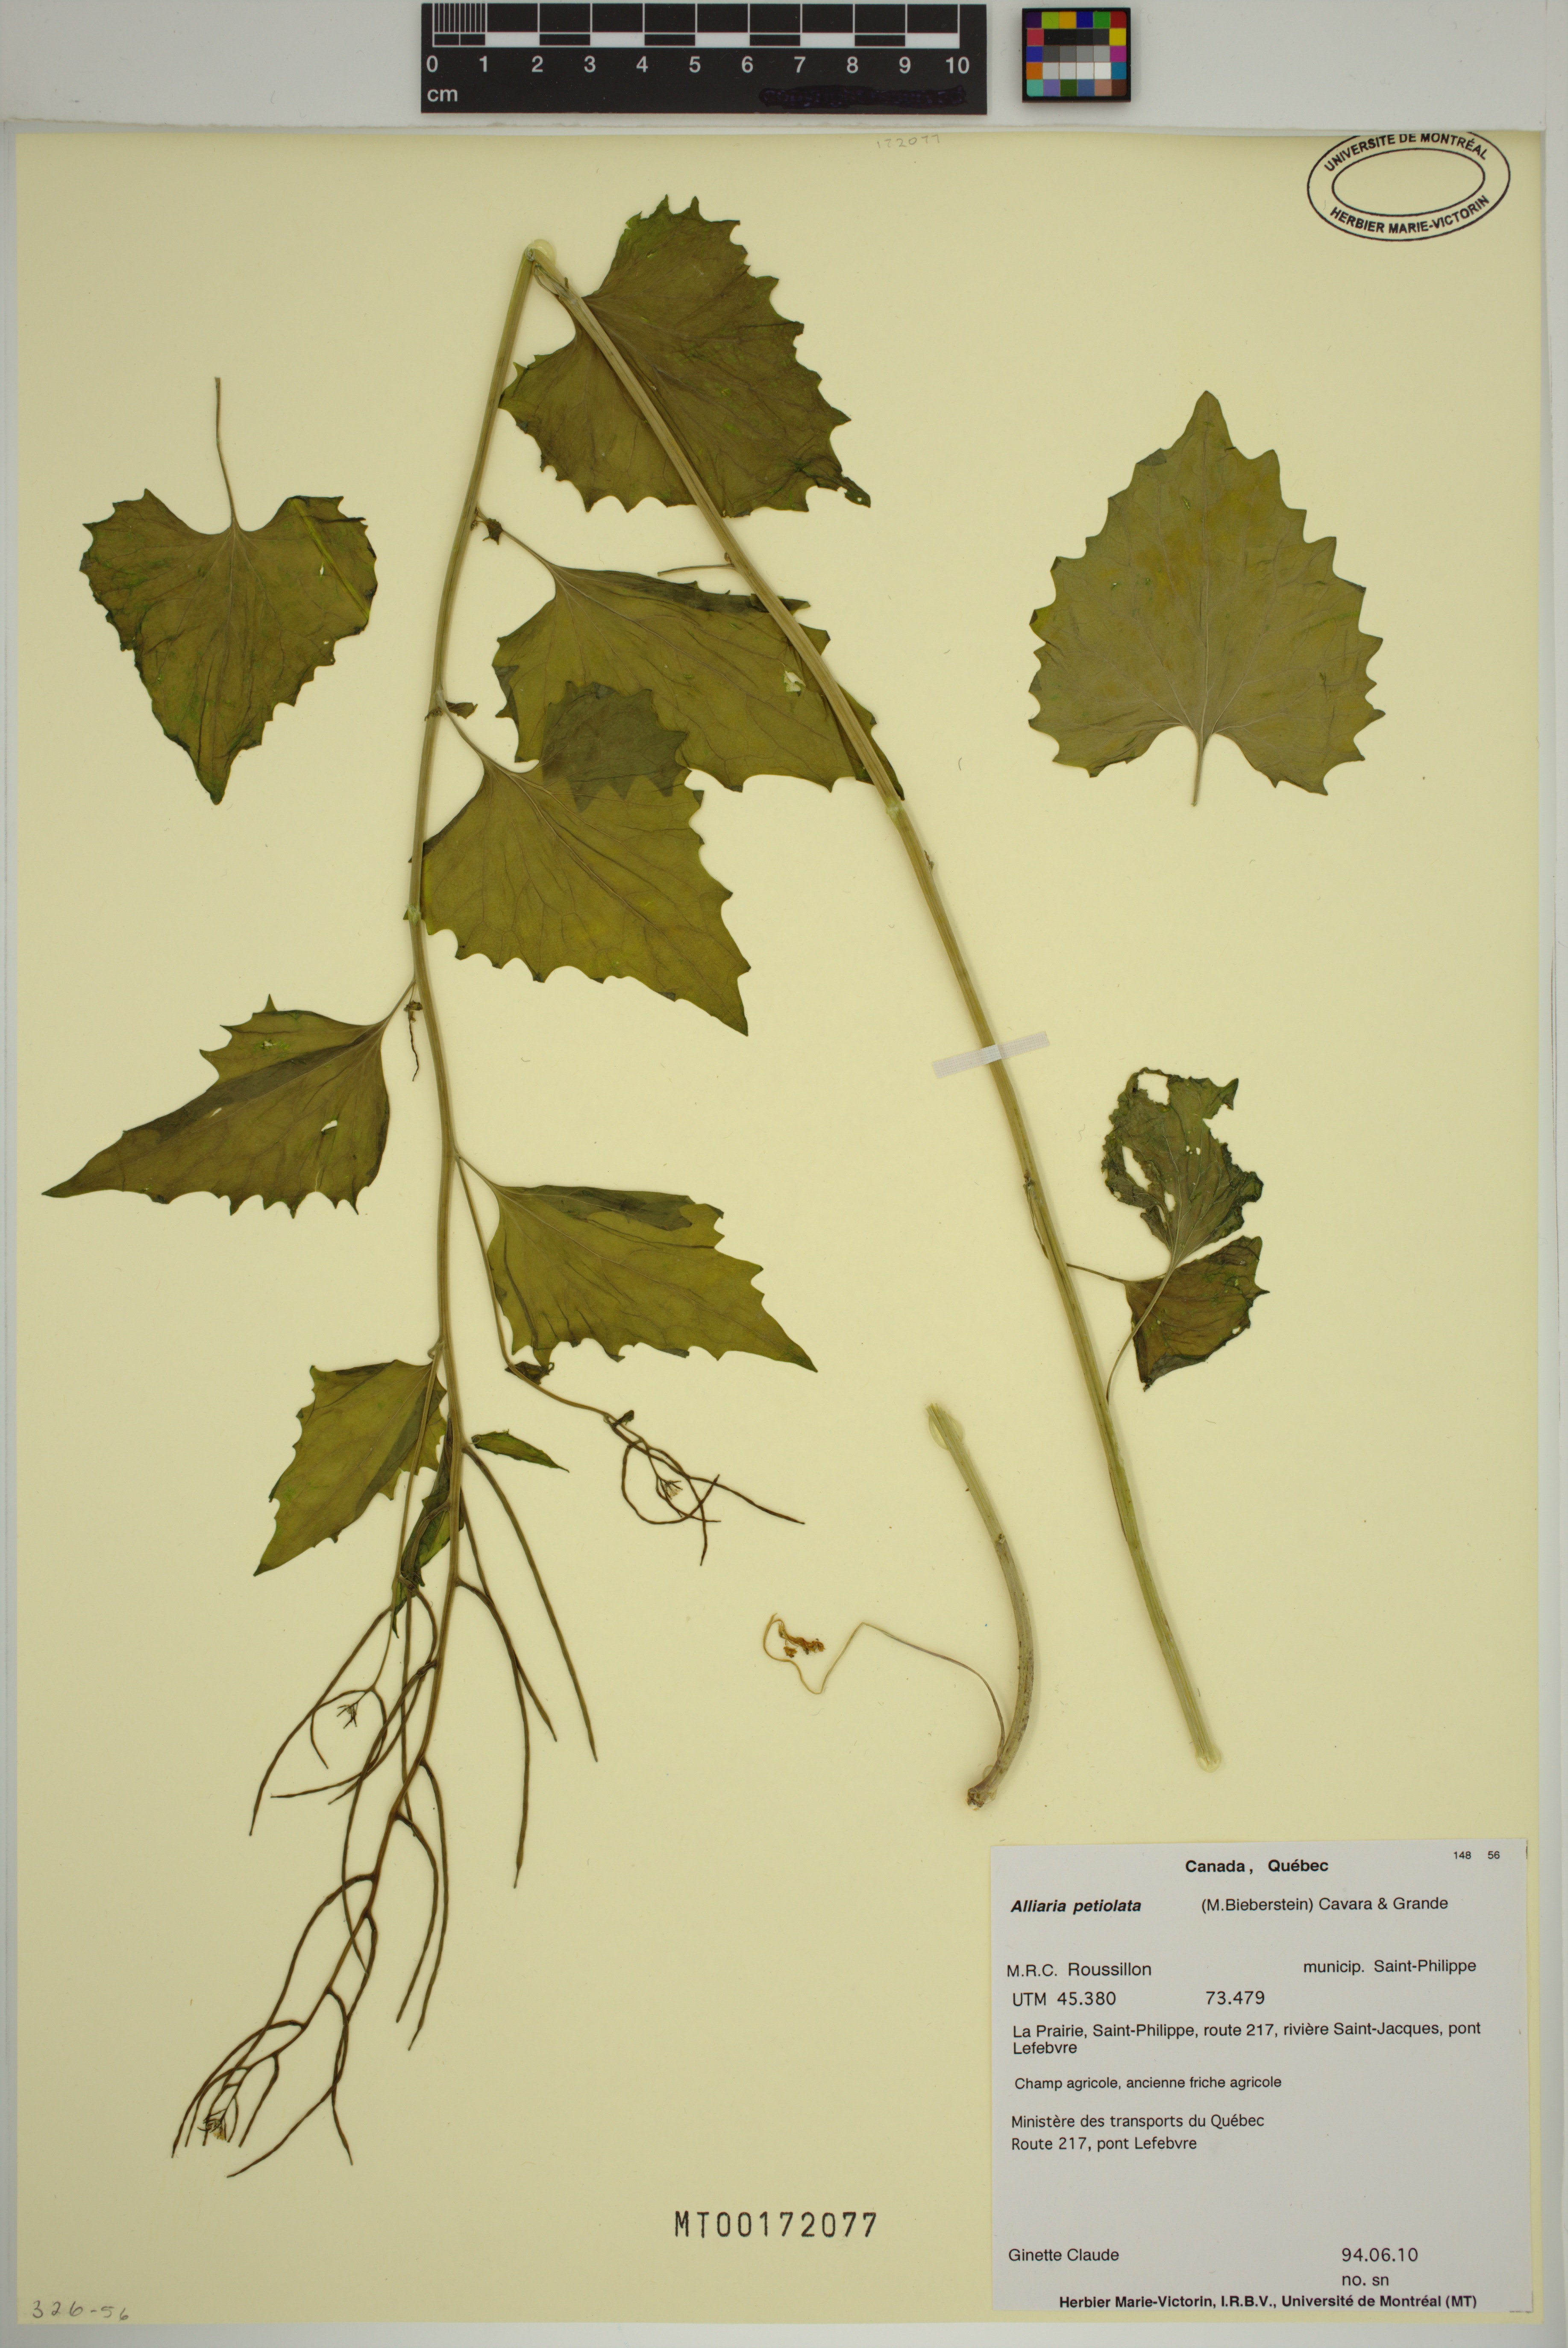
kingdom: Plantae
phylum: Tracheophyta
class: Magnoliopsida
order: Brassicales
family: Brassicaceae
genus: Alliaria
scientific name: Alliaria petiolata
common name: Garlic mustard
